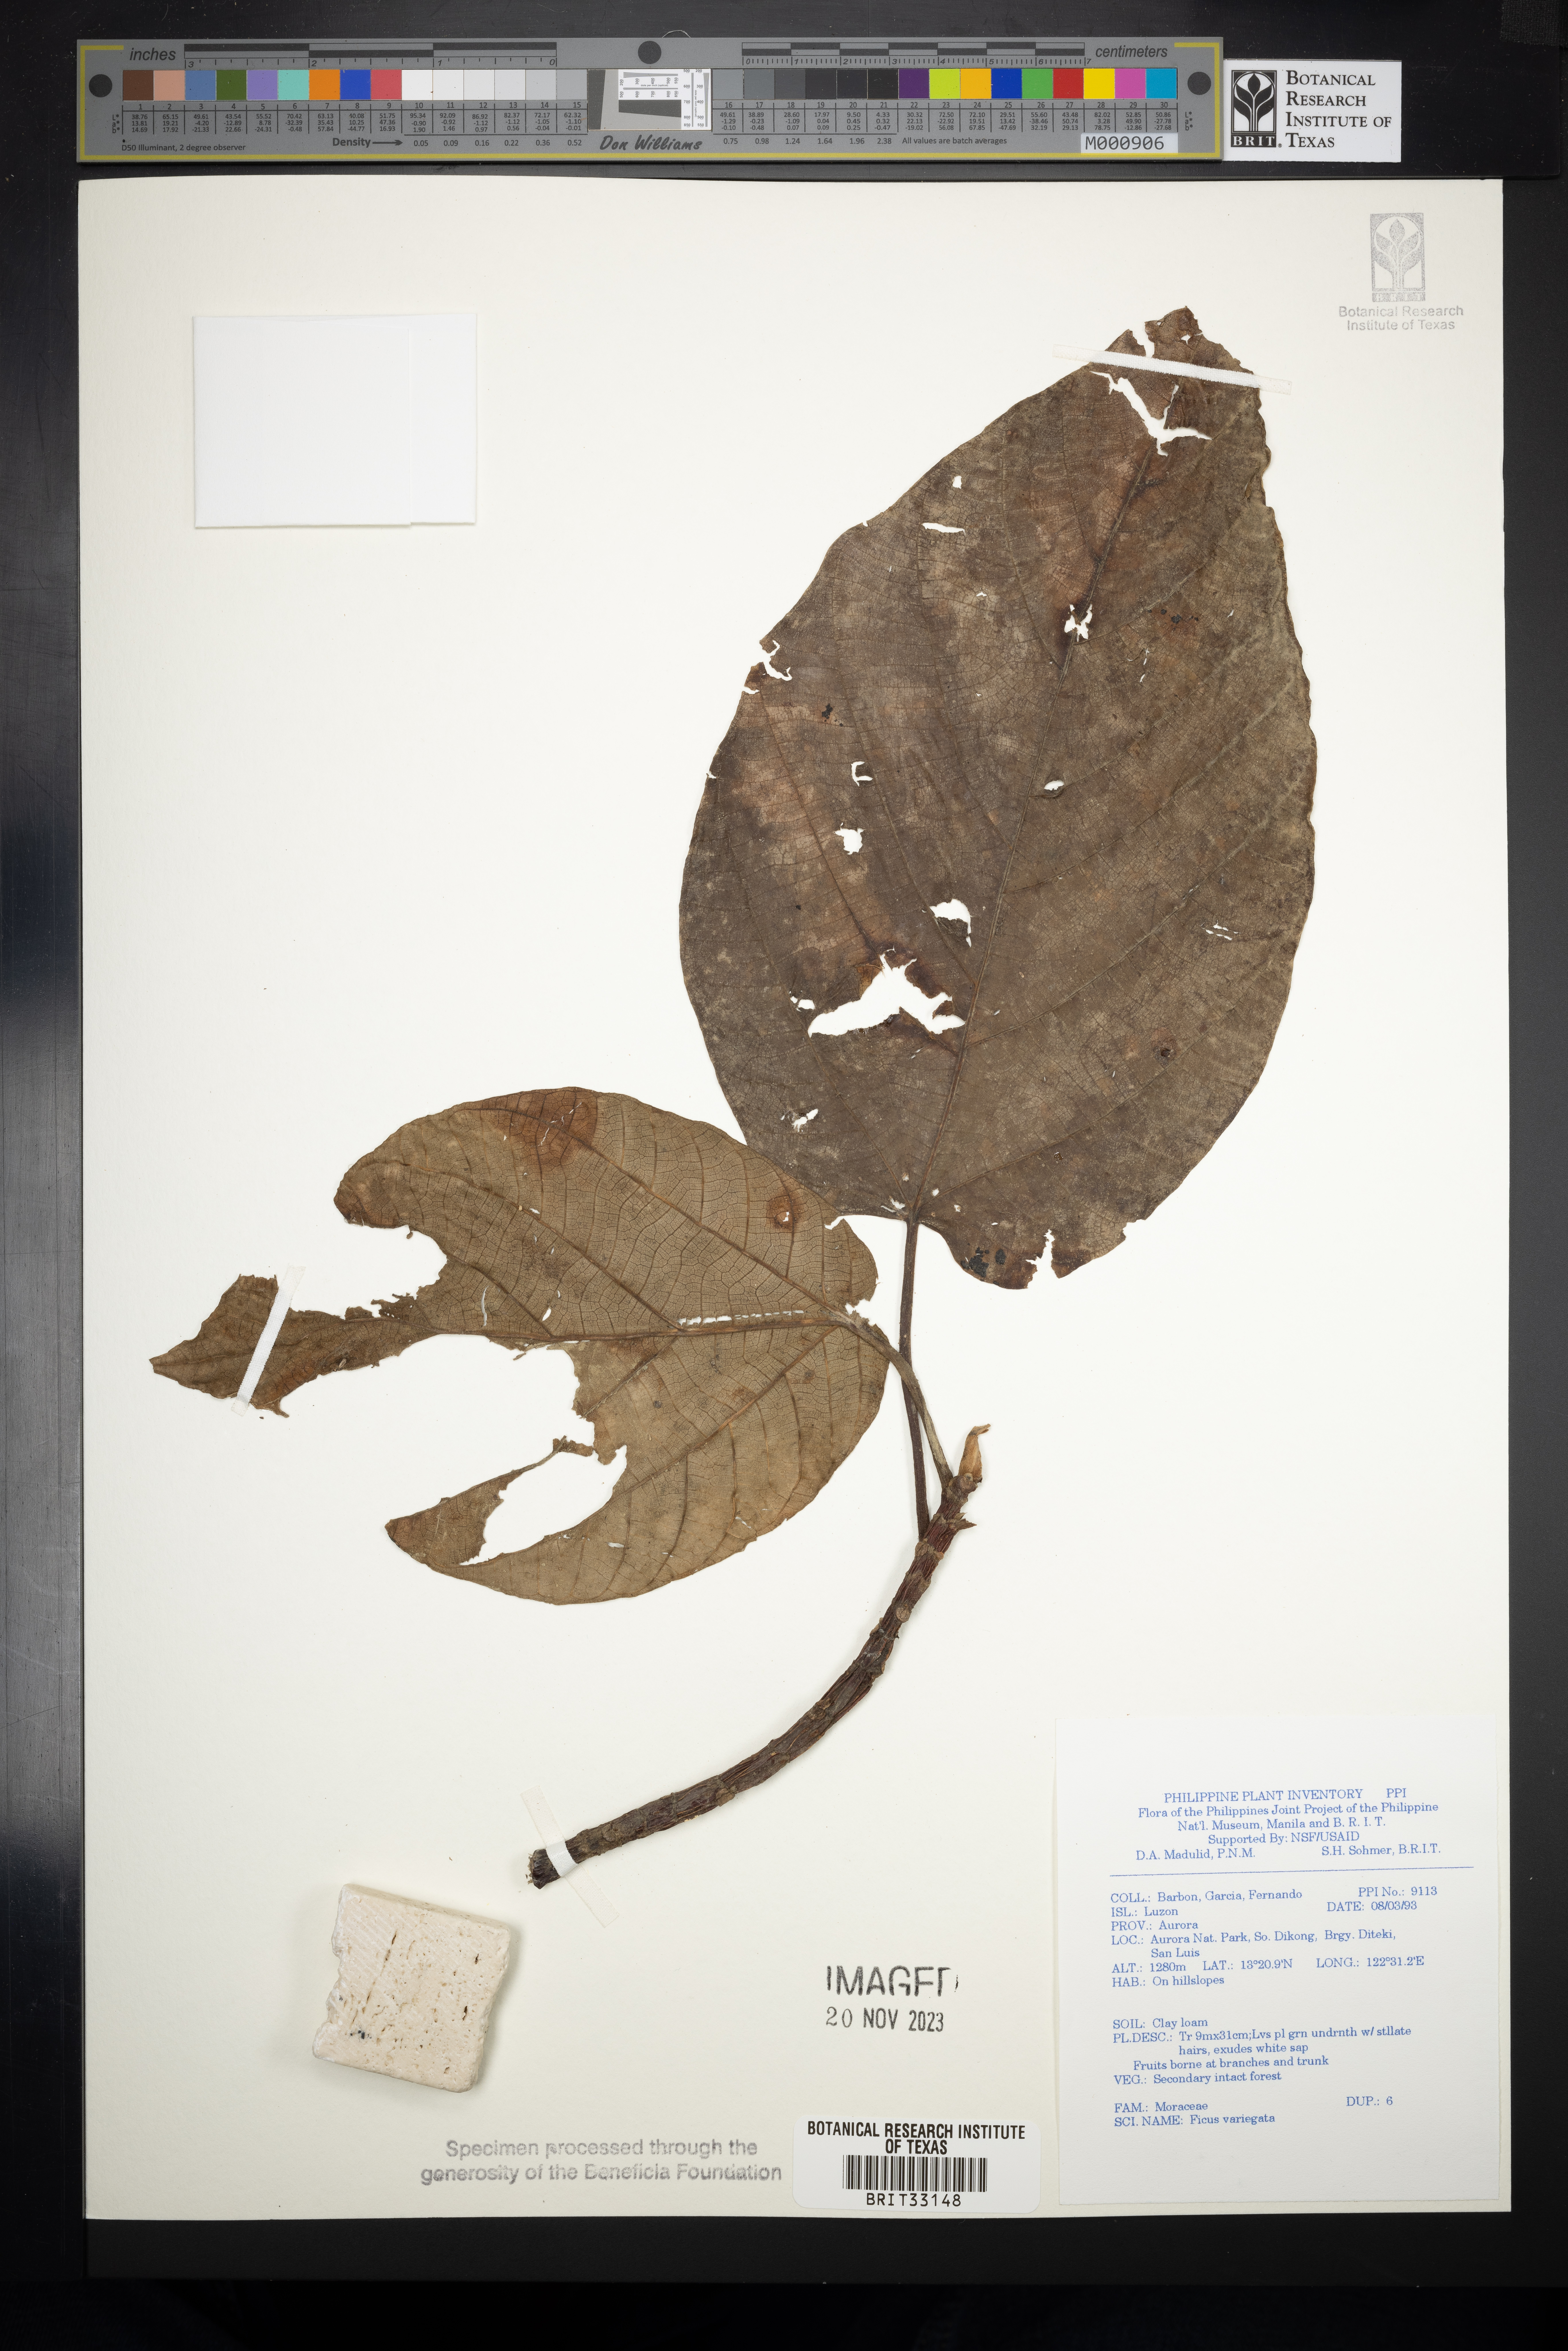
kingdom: Plantae
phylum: Tracheophyta
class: Magnoliopsida
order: Rosales
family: Moraceae
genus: Ficus
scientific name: Ficus variegata
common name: Variegated fig
